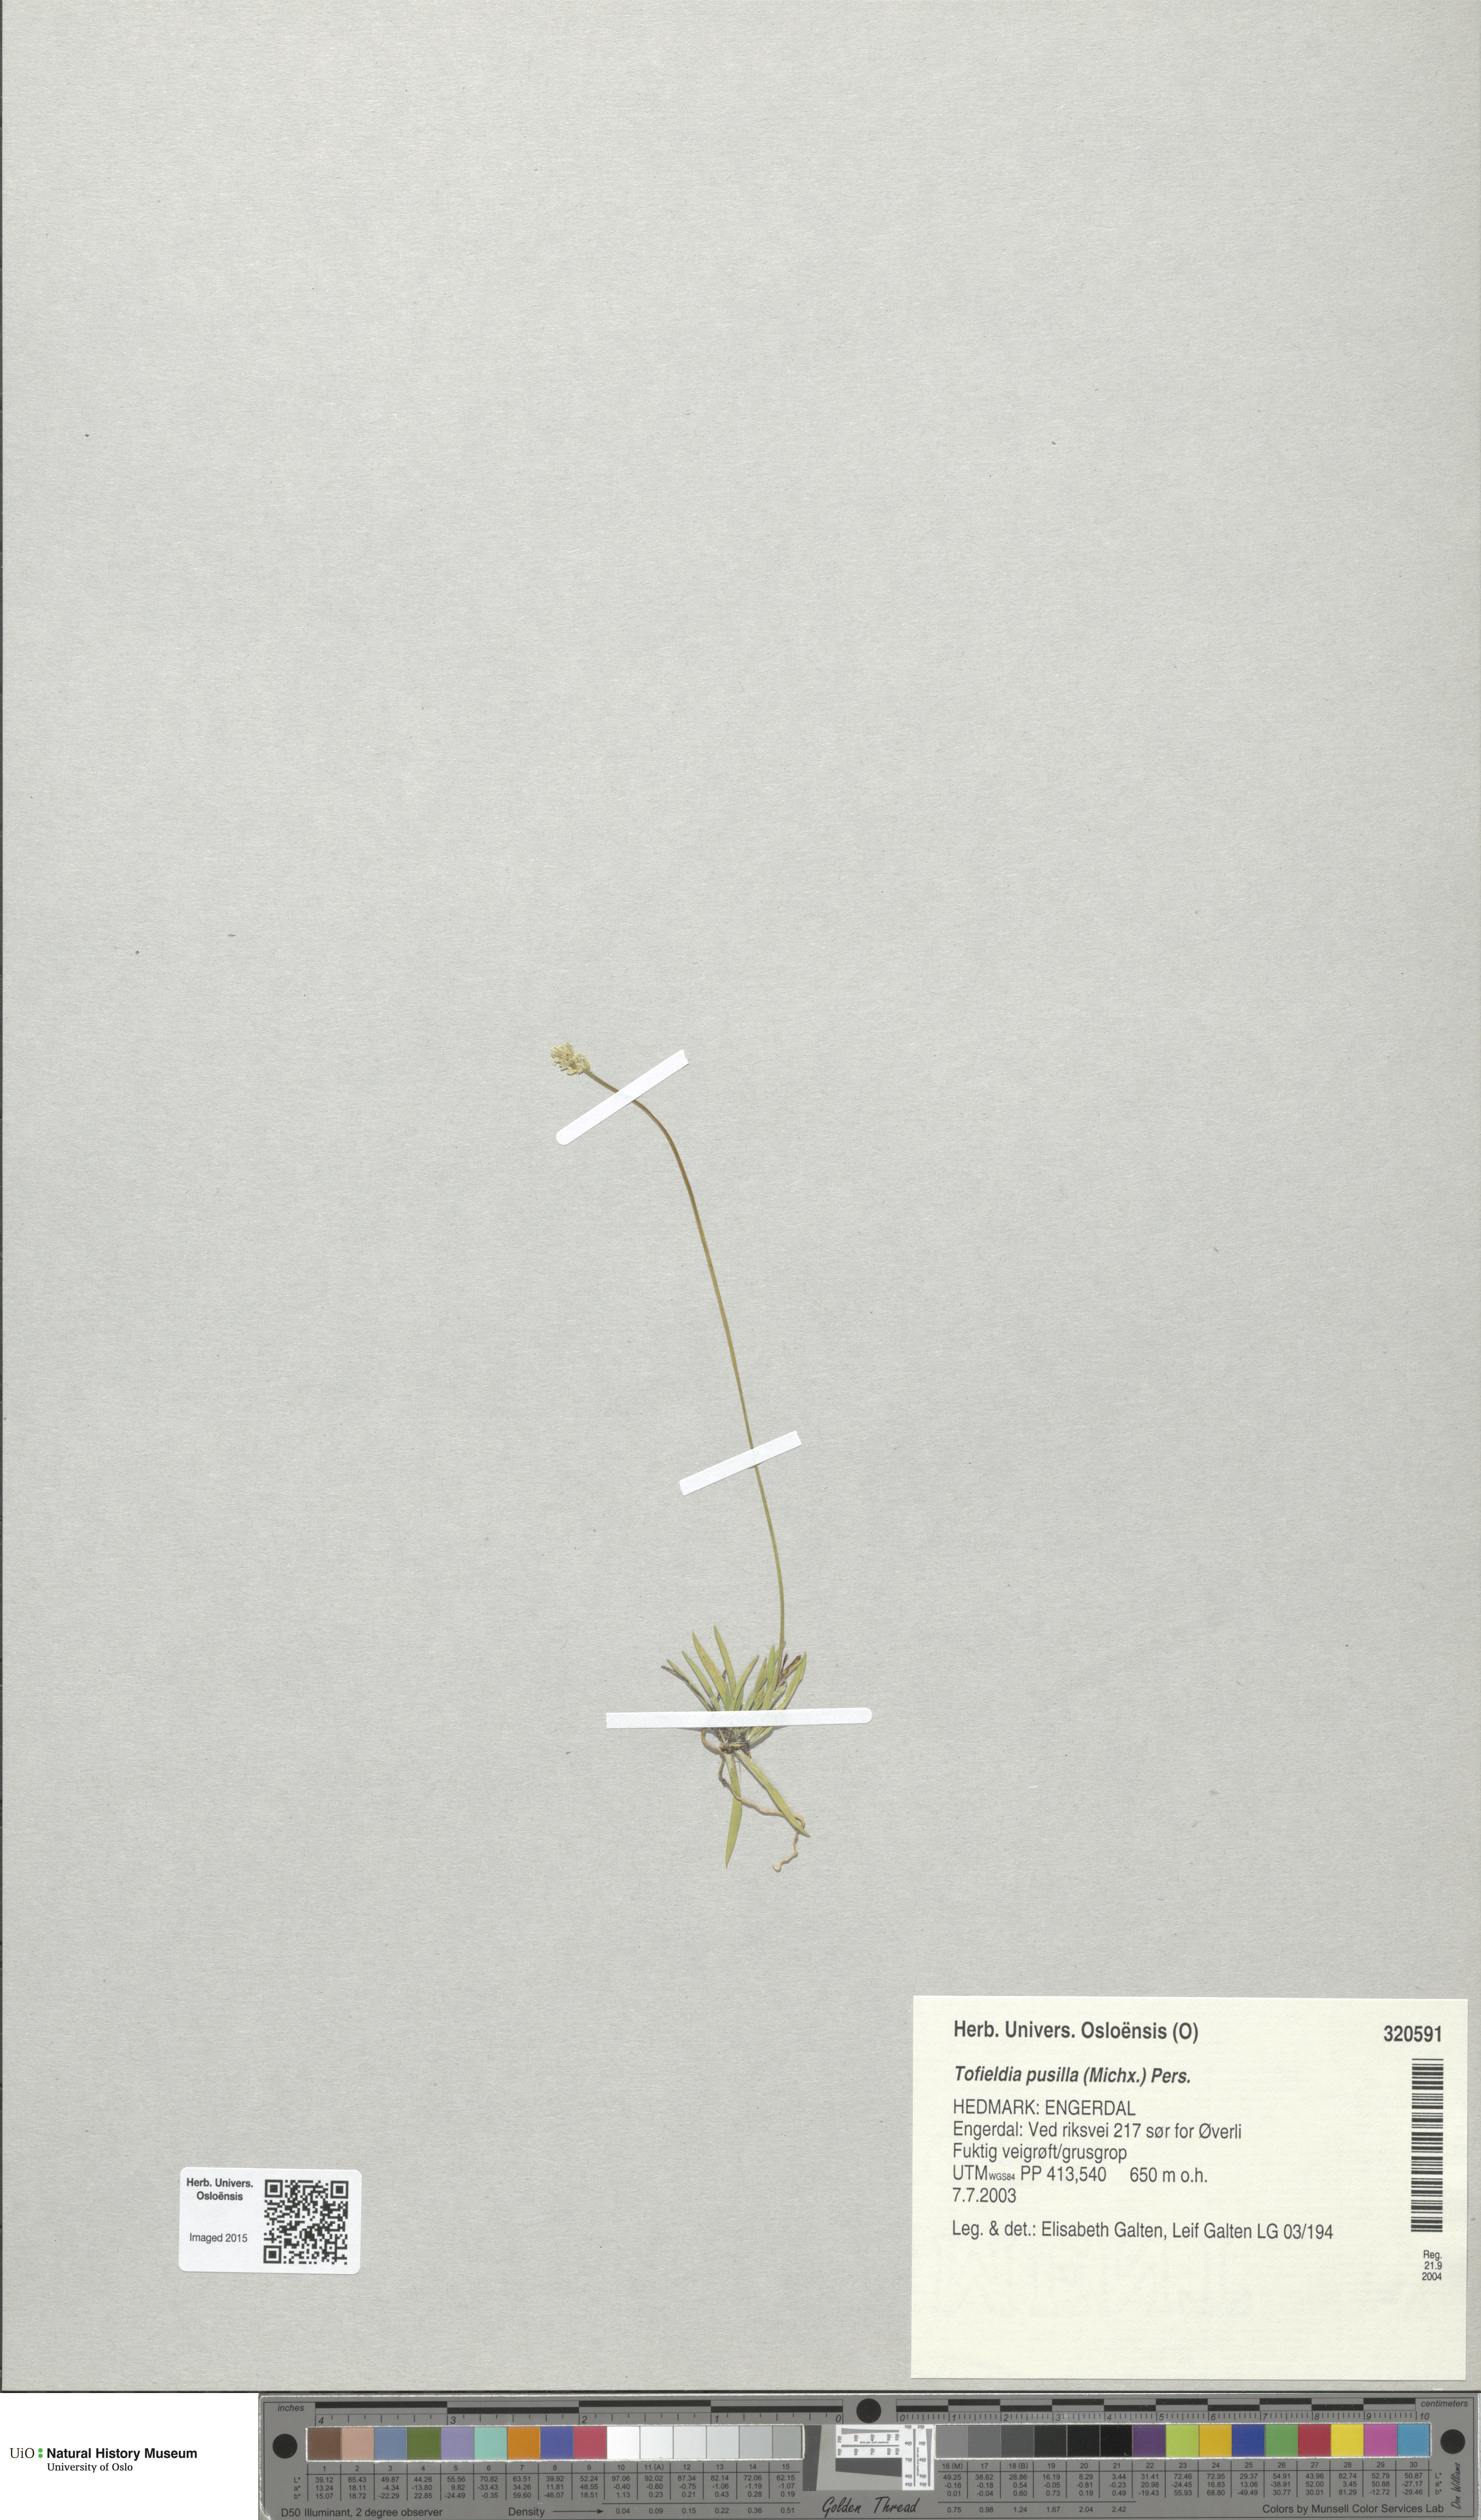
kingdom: Plantae
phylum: Tracheophyta
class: Liliopsida
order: Alismatales
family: Tofieldiaceae
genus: Tofieldia
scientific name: Tofieldia pusilla
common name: Scottish false asphodel
